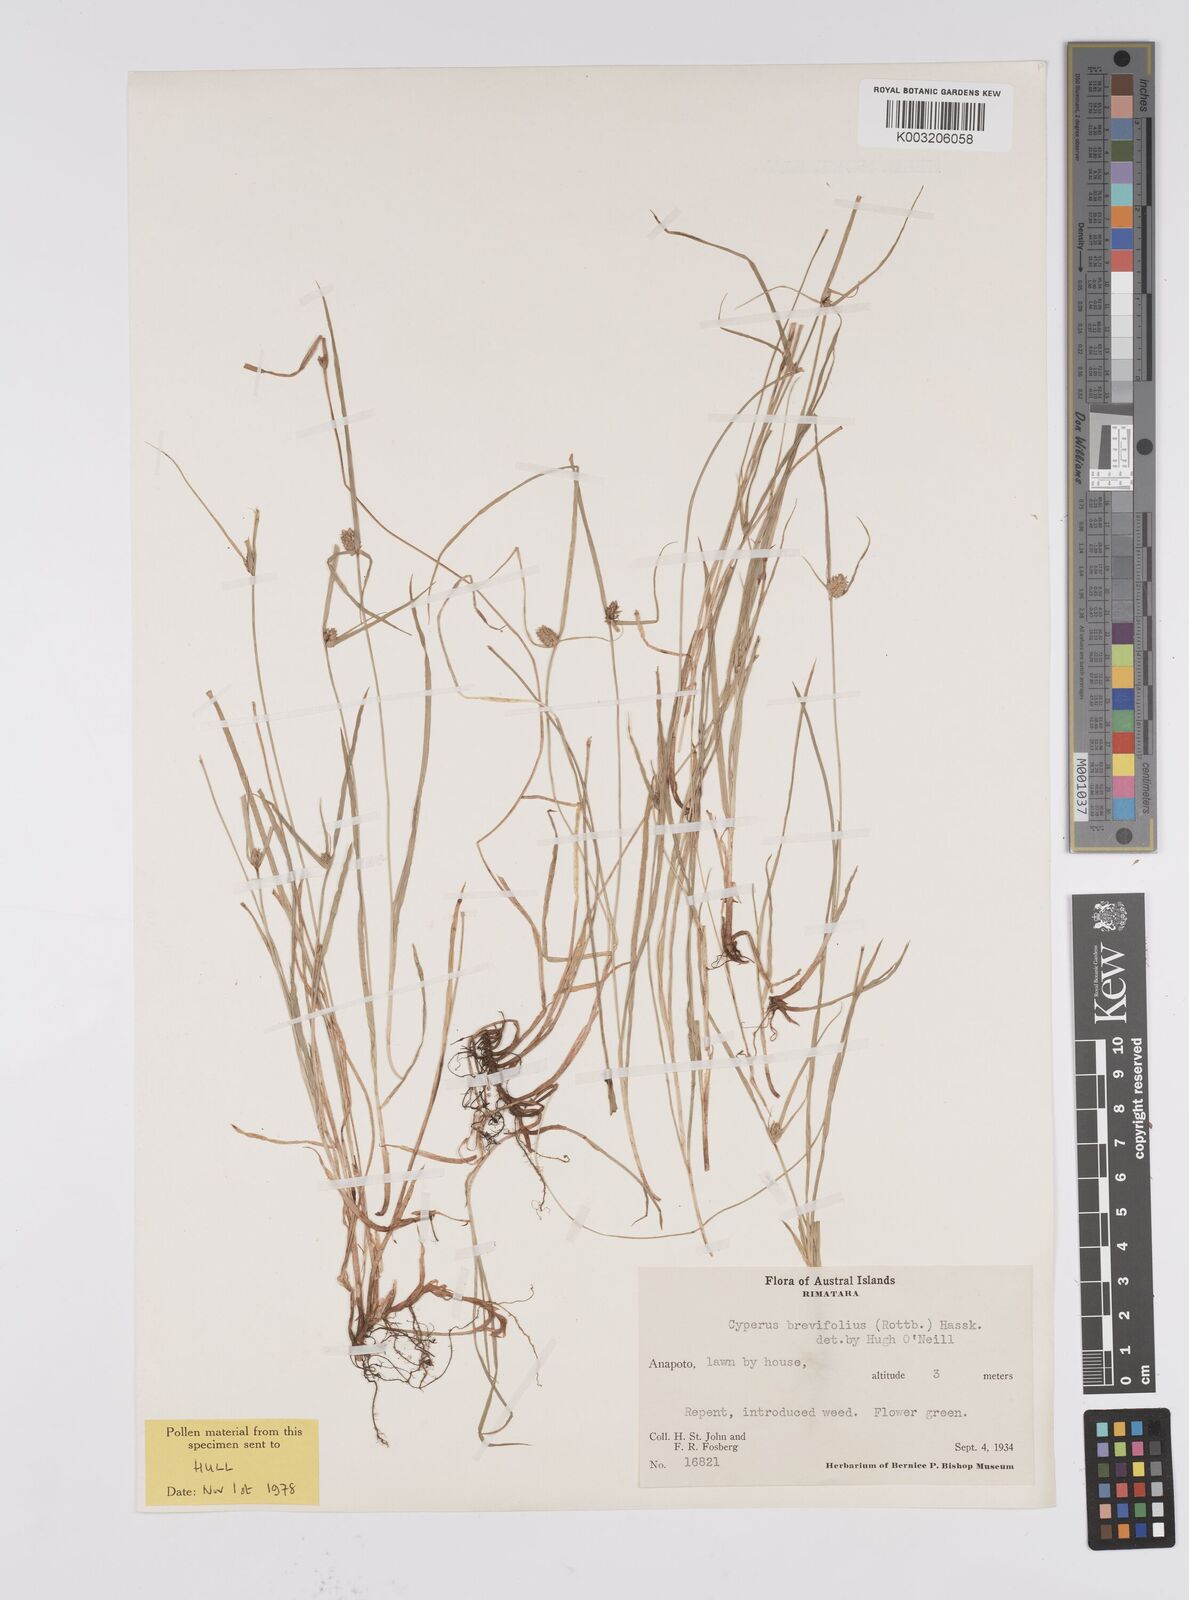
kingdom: Plantae
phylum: Tracheophyta
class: Liliopsida
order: Poales
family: Cyperaceae
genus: Cyperus
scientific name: Cyperus brevifolius
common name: Globe kyllinga
